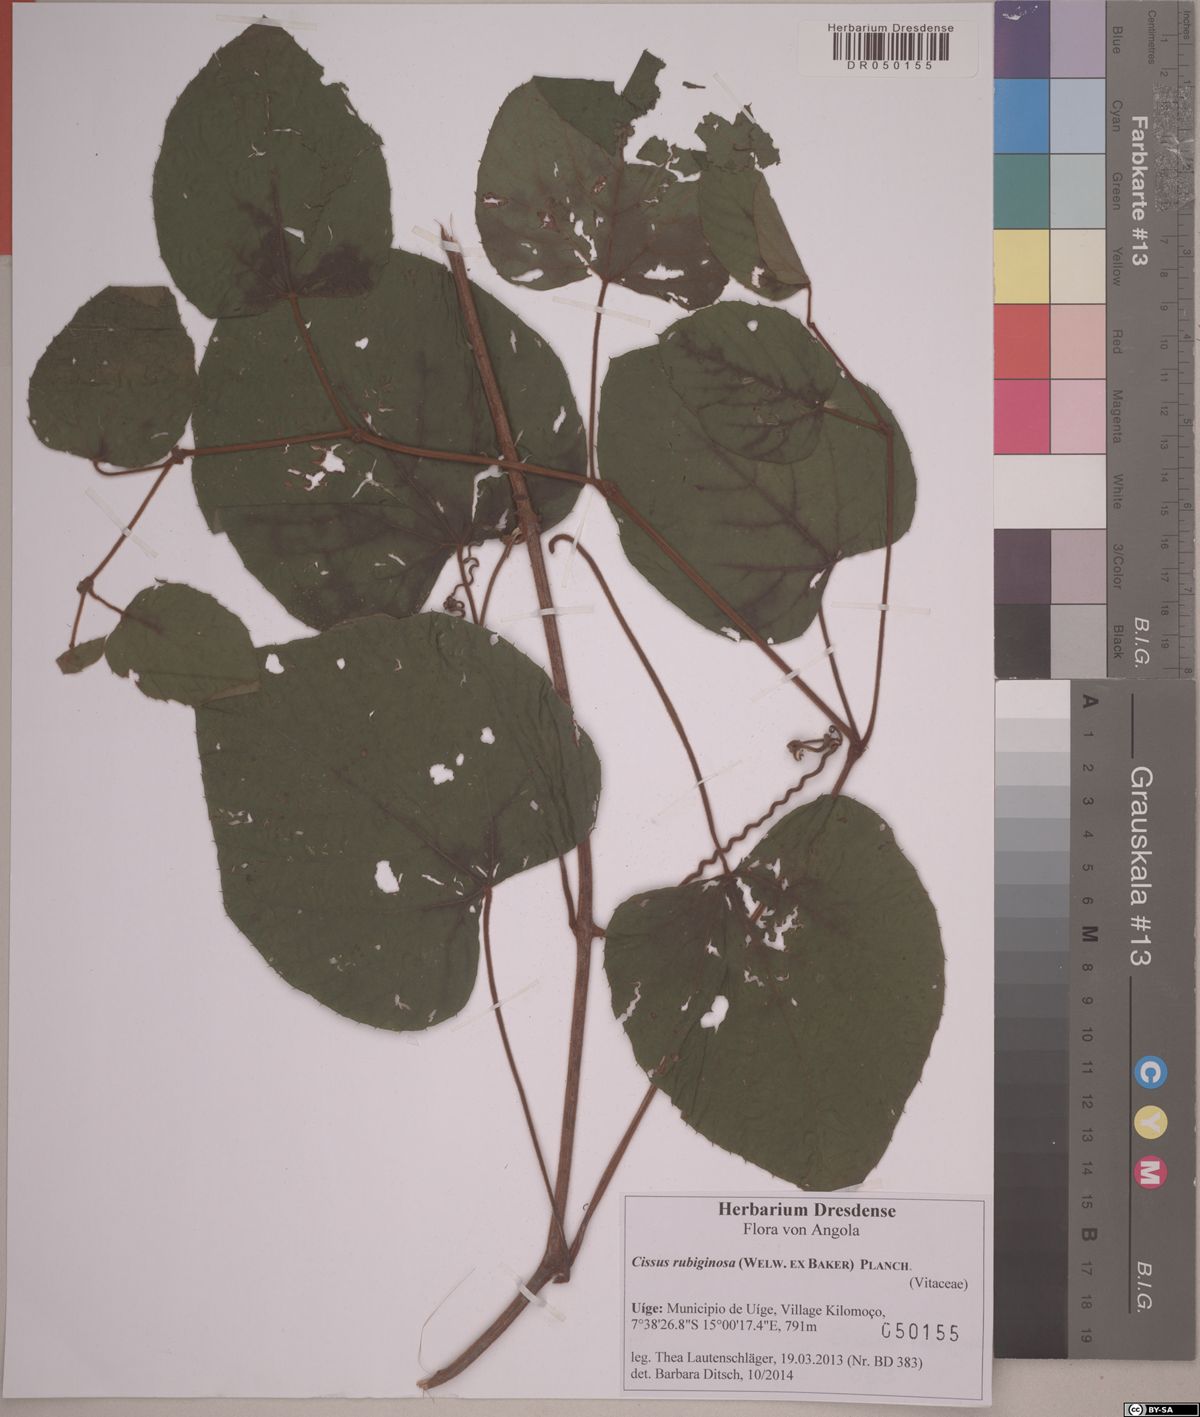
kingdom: Plantae
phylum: Tracheophyta
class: Magnoliopsida
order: Vitales
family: Vitaceae
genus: Cissus
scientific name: Cissus rubiginosa
